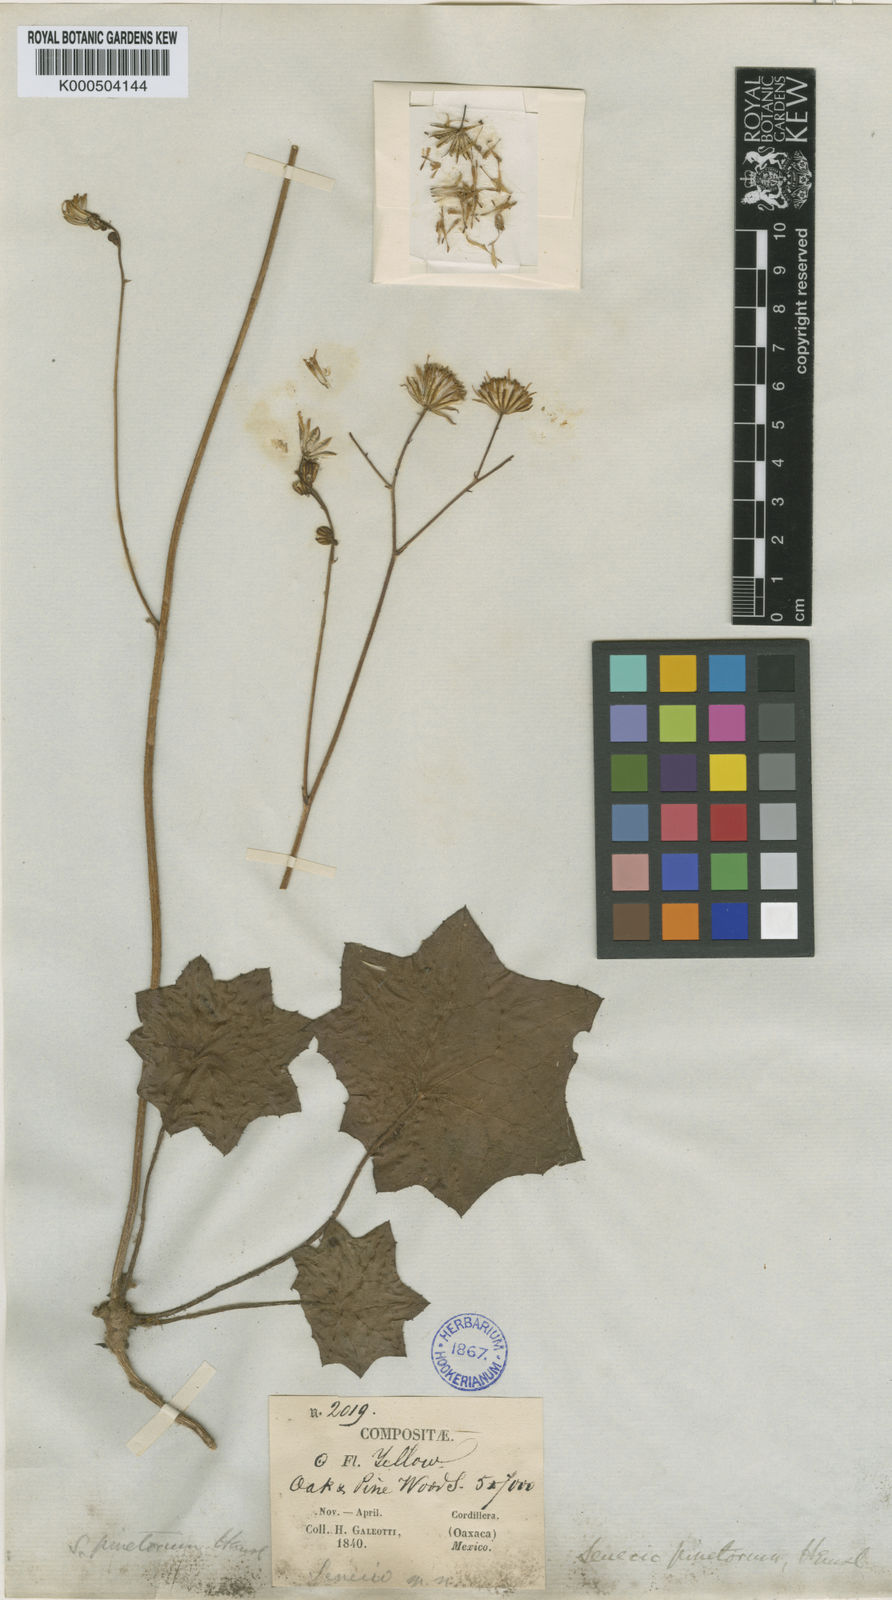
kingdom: Plantae
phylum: Tracheophyta
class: Magnoliopsida
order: Asterales
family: Asteraceae
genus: Psacaliopsis
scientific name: Psacaliopsis pinetorum
